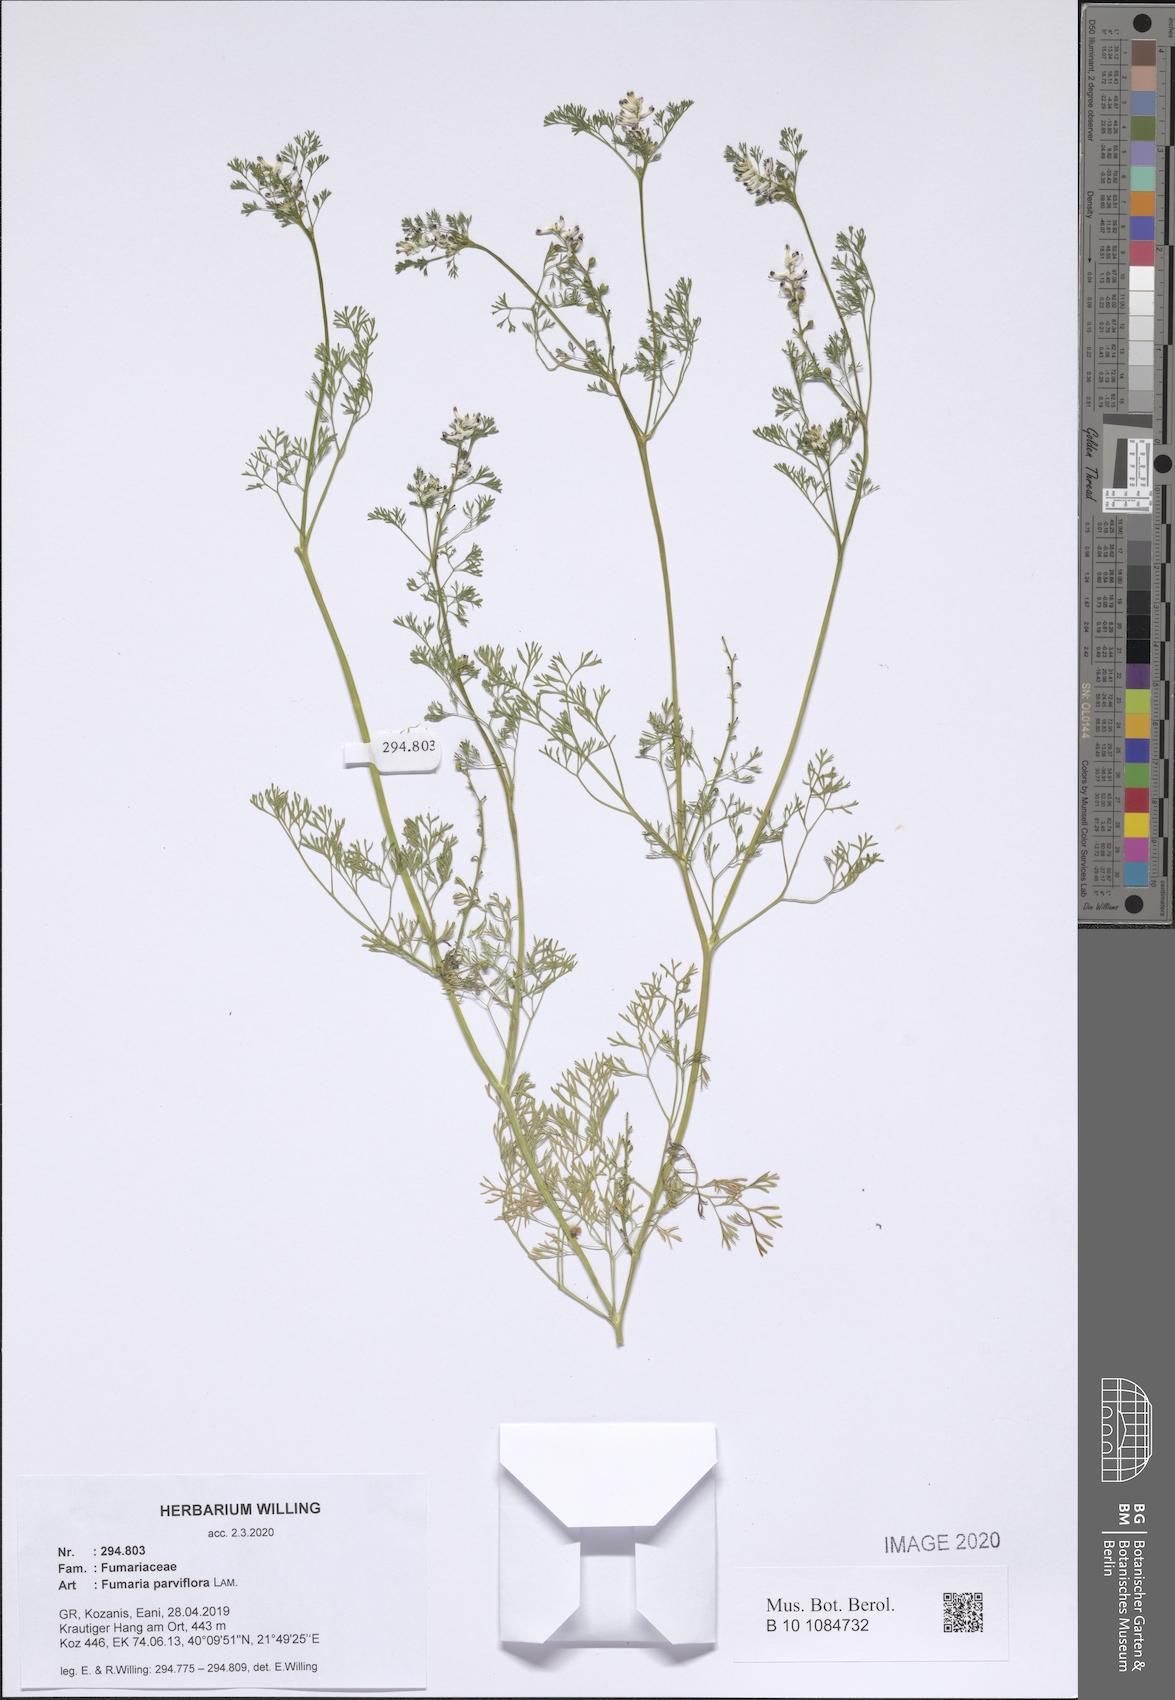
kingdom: Plantae
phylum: Tracheophyta
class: Magnoliopsida
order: Ranunculales
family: Papaveraceae
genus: Fumaria
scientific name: Fumaria parviflora
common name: Fine-leaved fumitory
